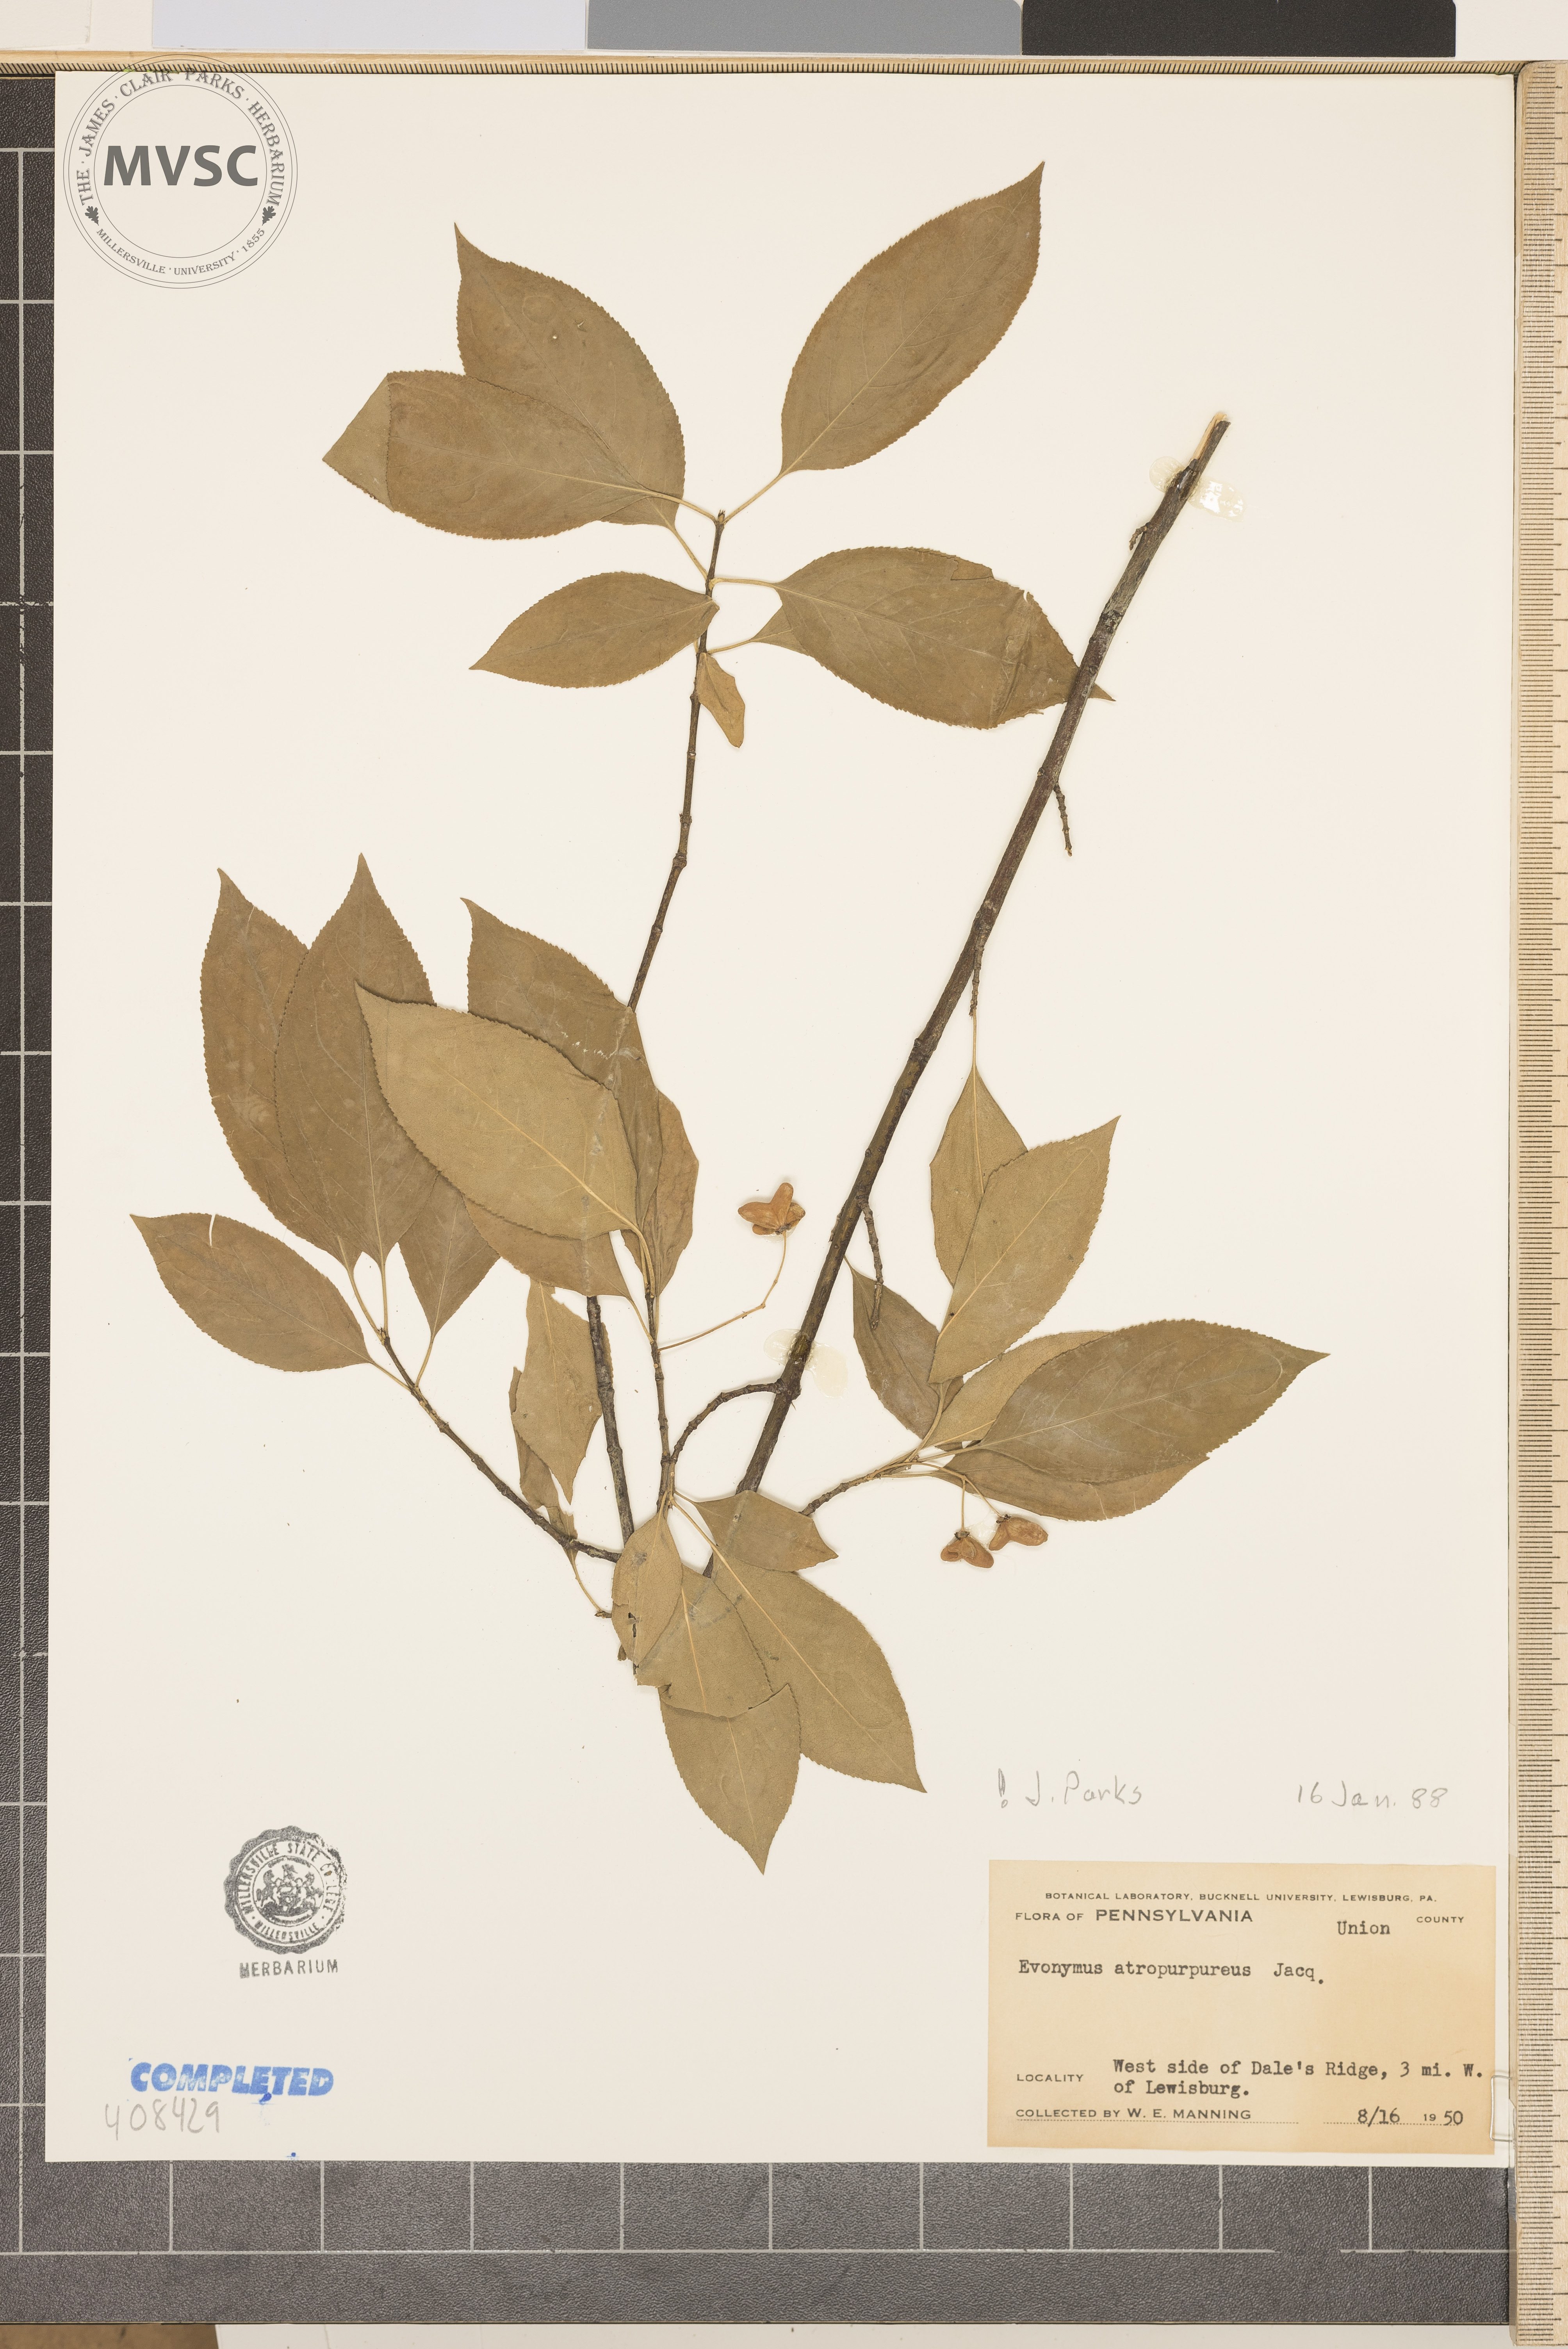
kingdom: Plantae
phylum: Tracheophyta
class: Magnoliopsida
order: Celastrales
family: Celastraceae
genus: Euonymus
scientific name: Euonymus atropurpureus
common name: Burningbush
